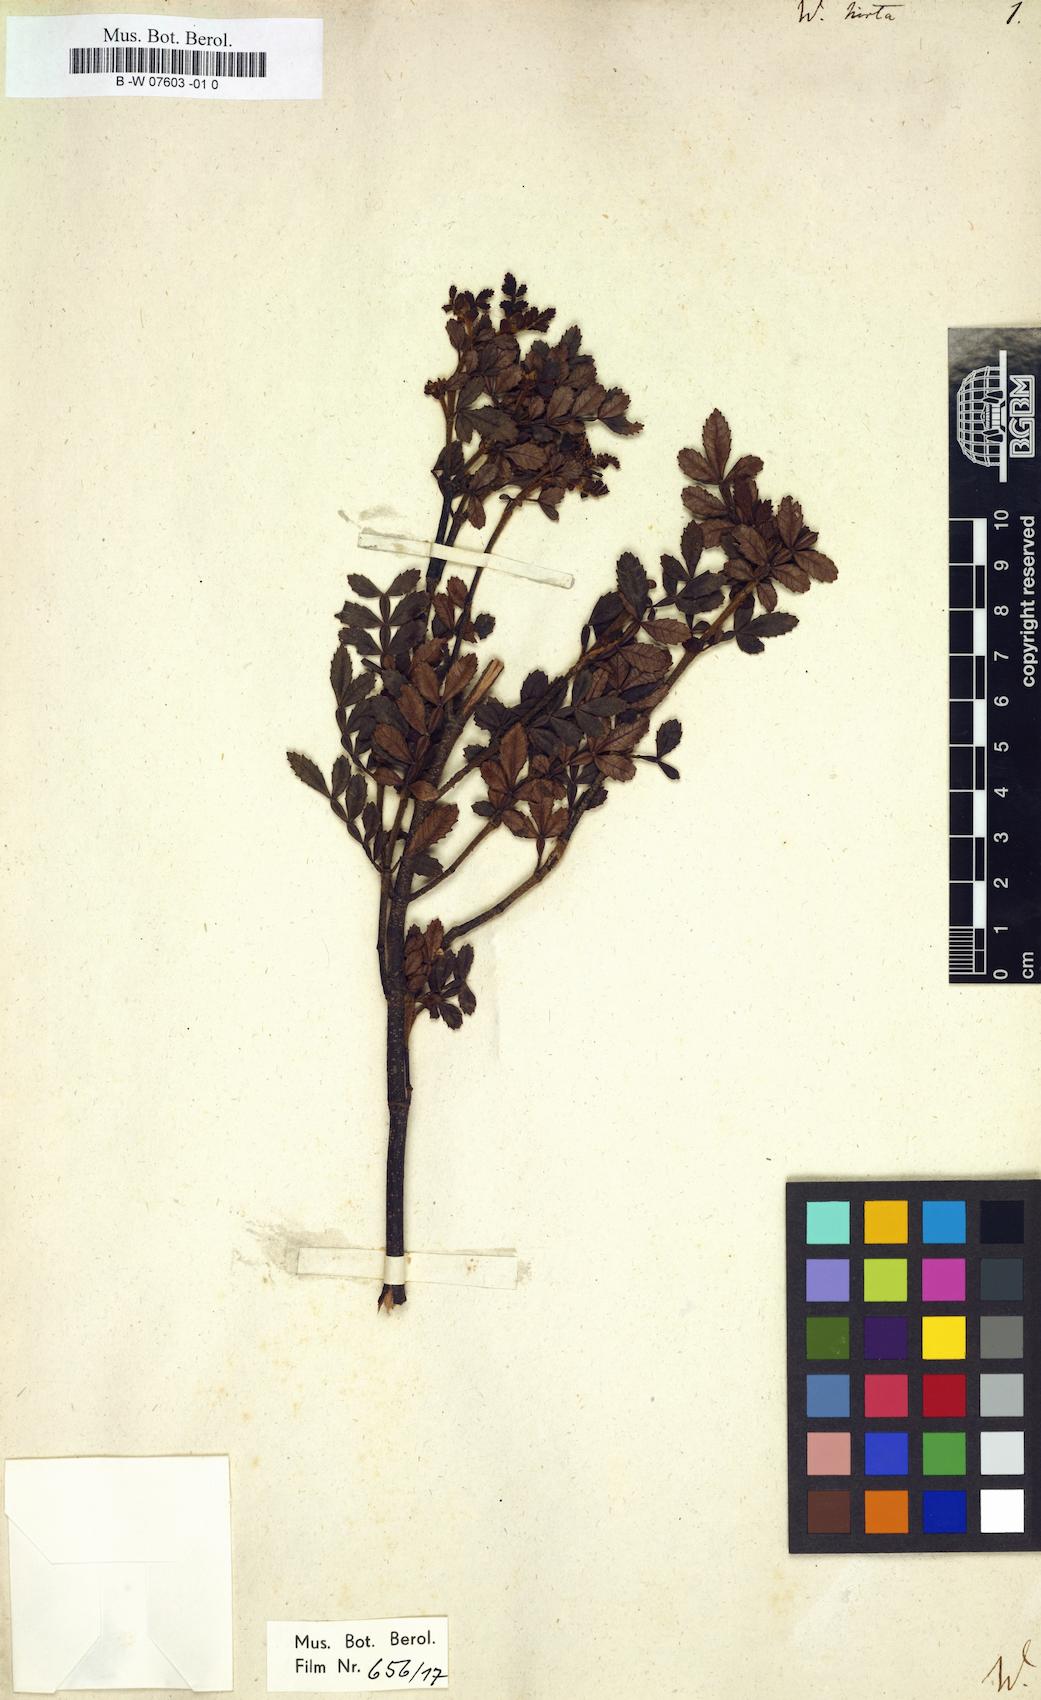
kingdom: Plantae
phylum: Tracheophyta
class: Magnoliopsida
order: Oxalidales
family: Cunoniaceae
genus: Weinmannia
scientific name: Weinmannia pinnata
